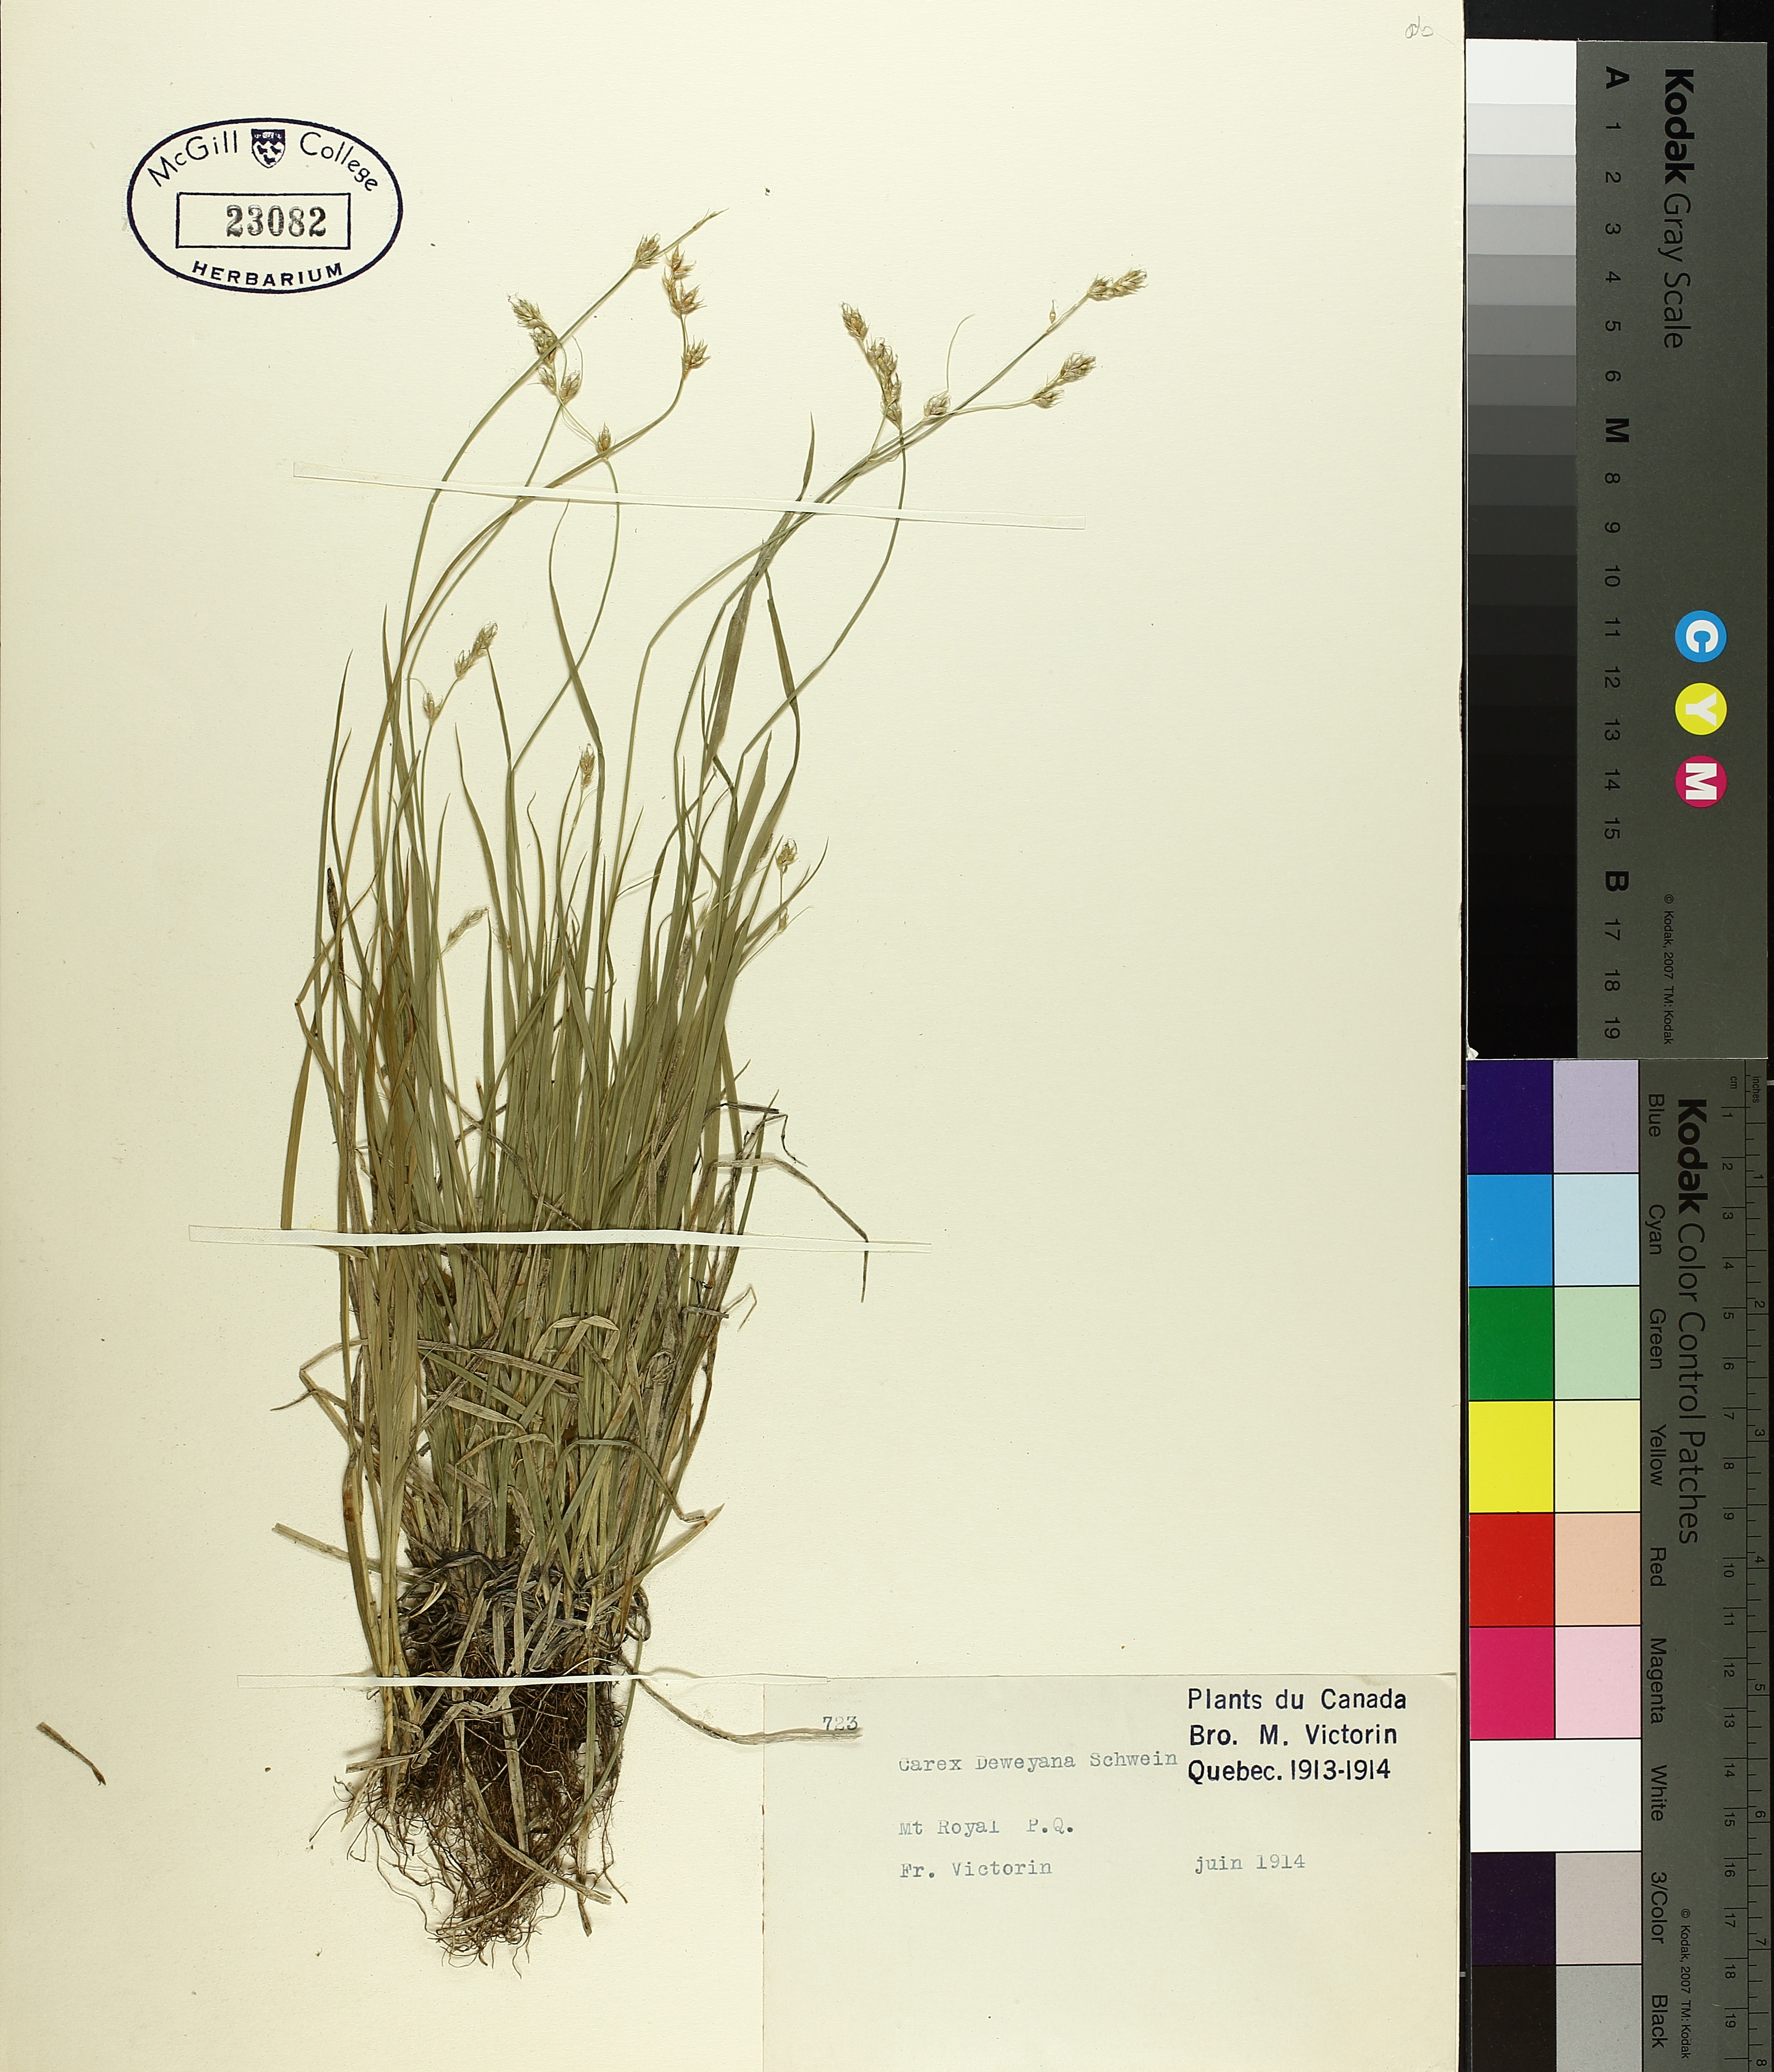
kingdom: Plantae
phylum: Tracheophyta
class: Liliopsida
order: Poales
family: Cyperaceae
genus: Carex
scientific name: Carex deweyana
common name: Dewey's sedge
